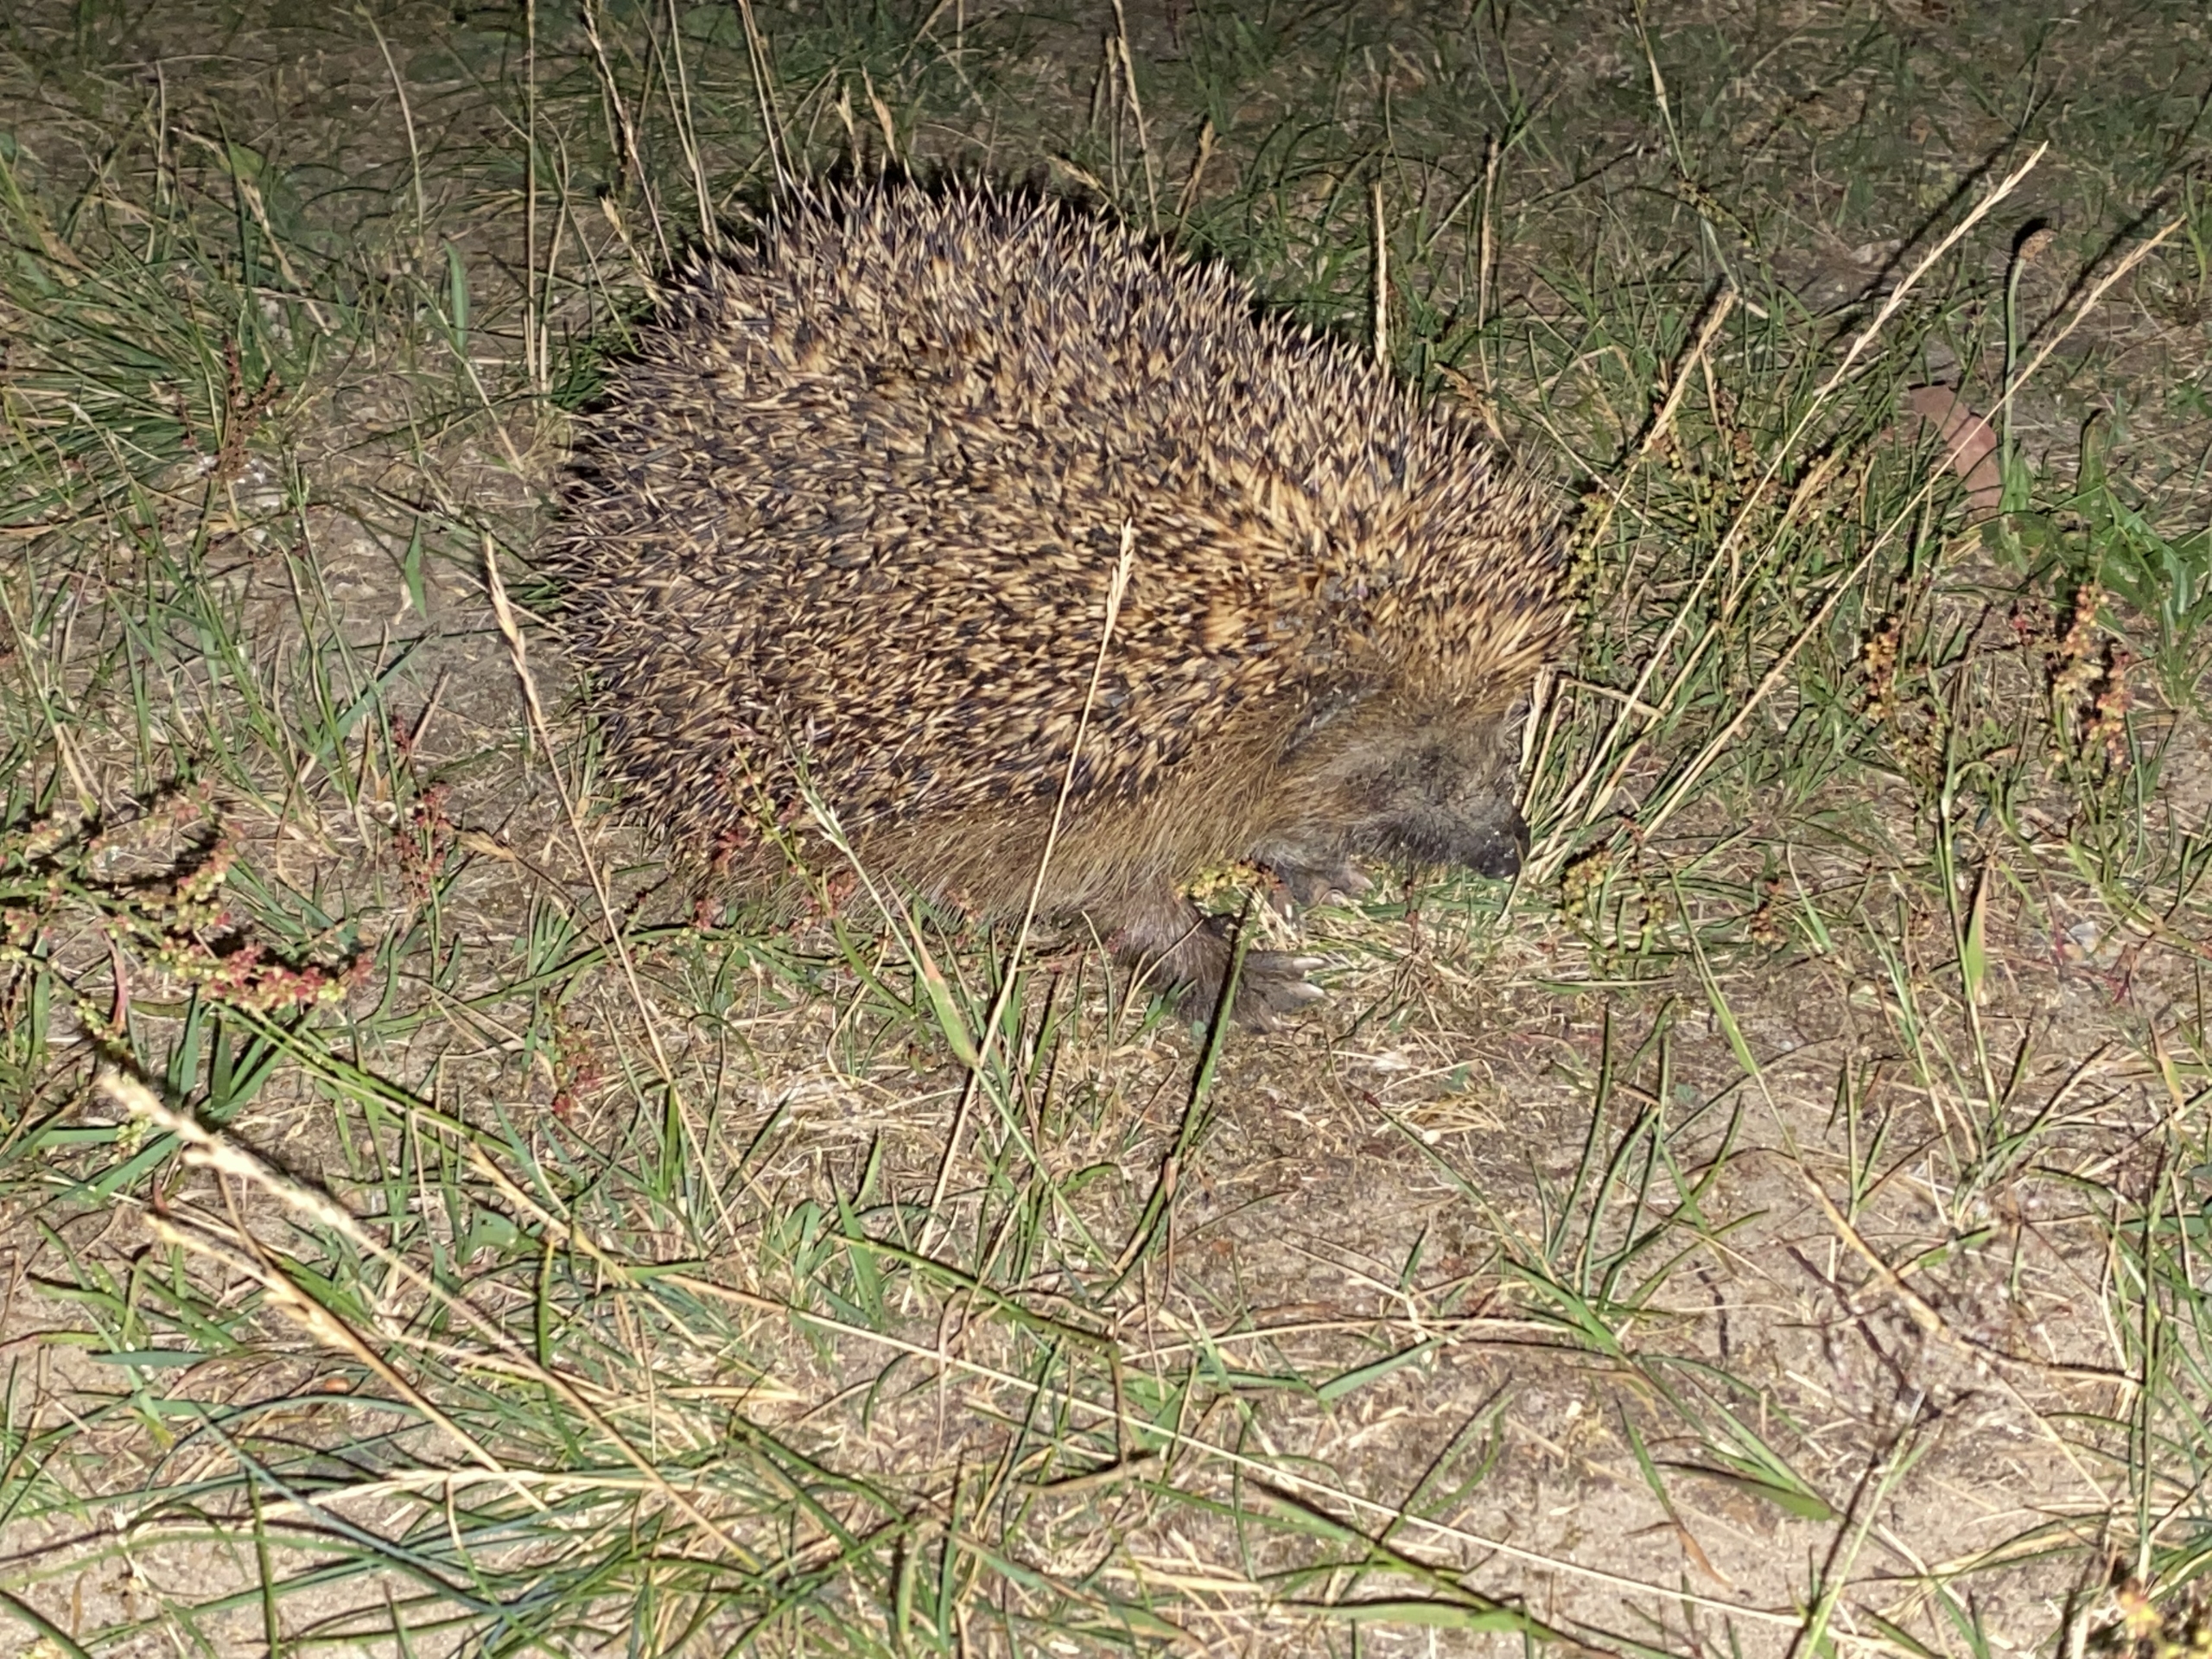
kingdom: Animalia
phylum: Chordata
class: Mammalia
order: Erinaceomorpha
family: Erinaceidae
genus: Erinaceus
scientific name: Erinaceus europaeus
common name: Pindsvin
